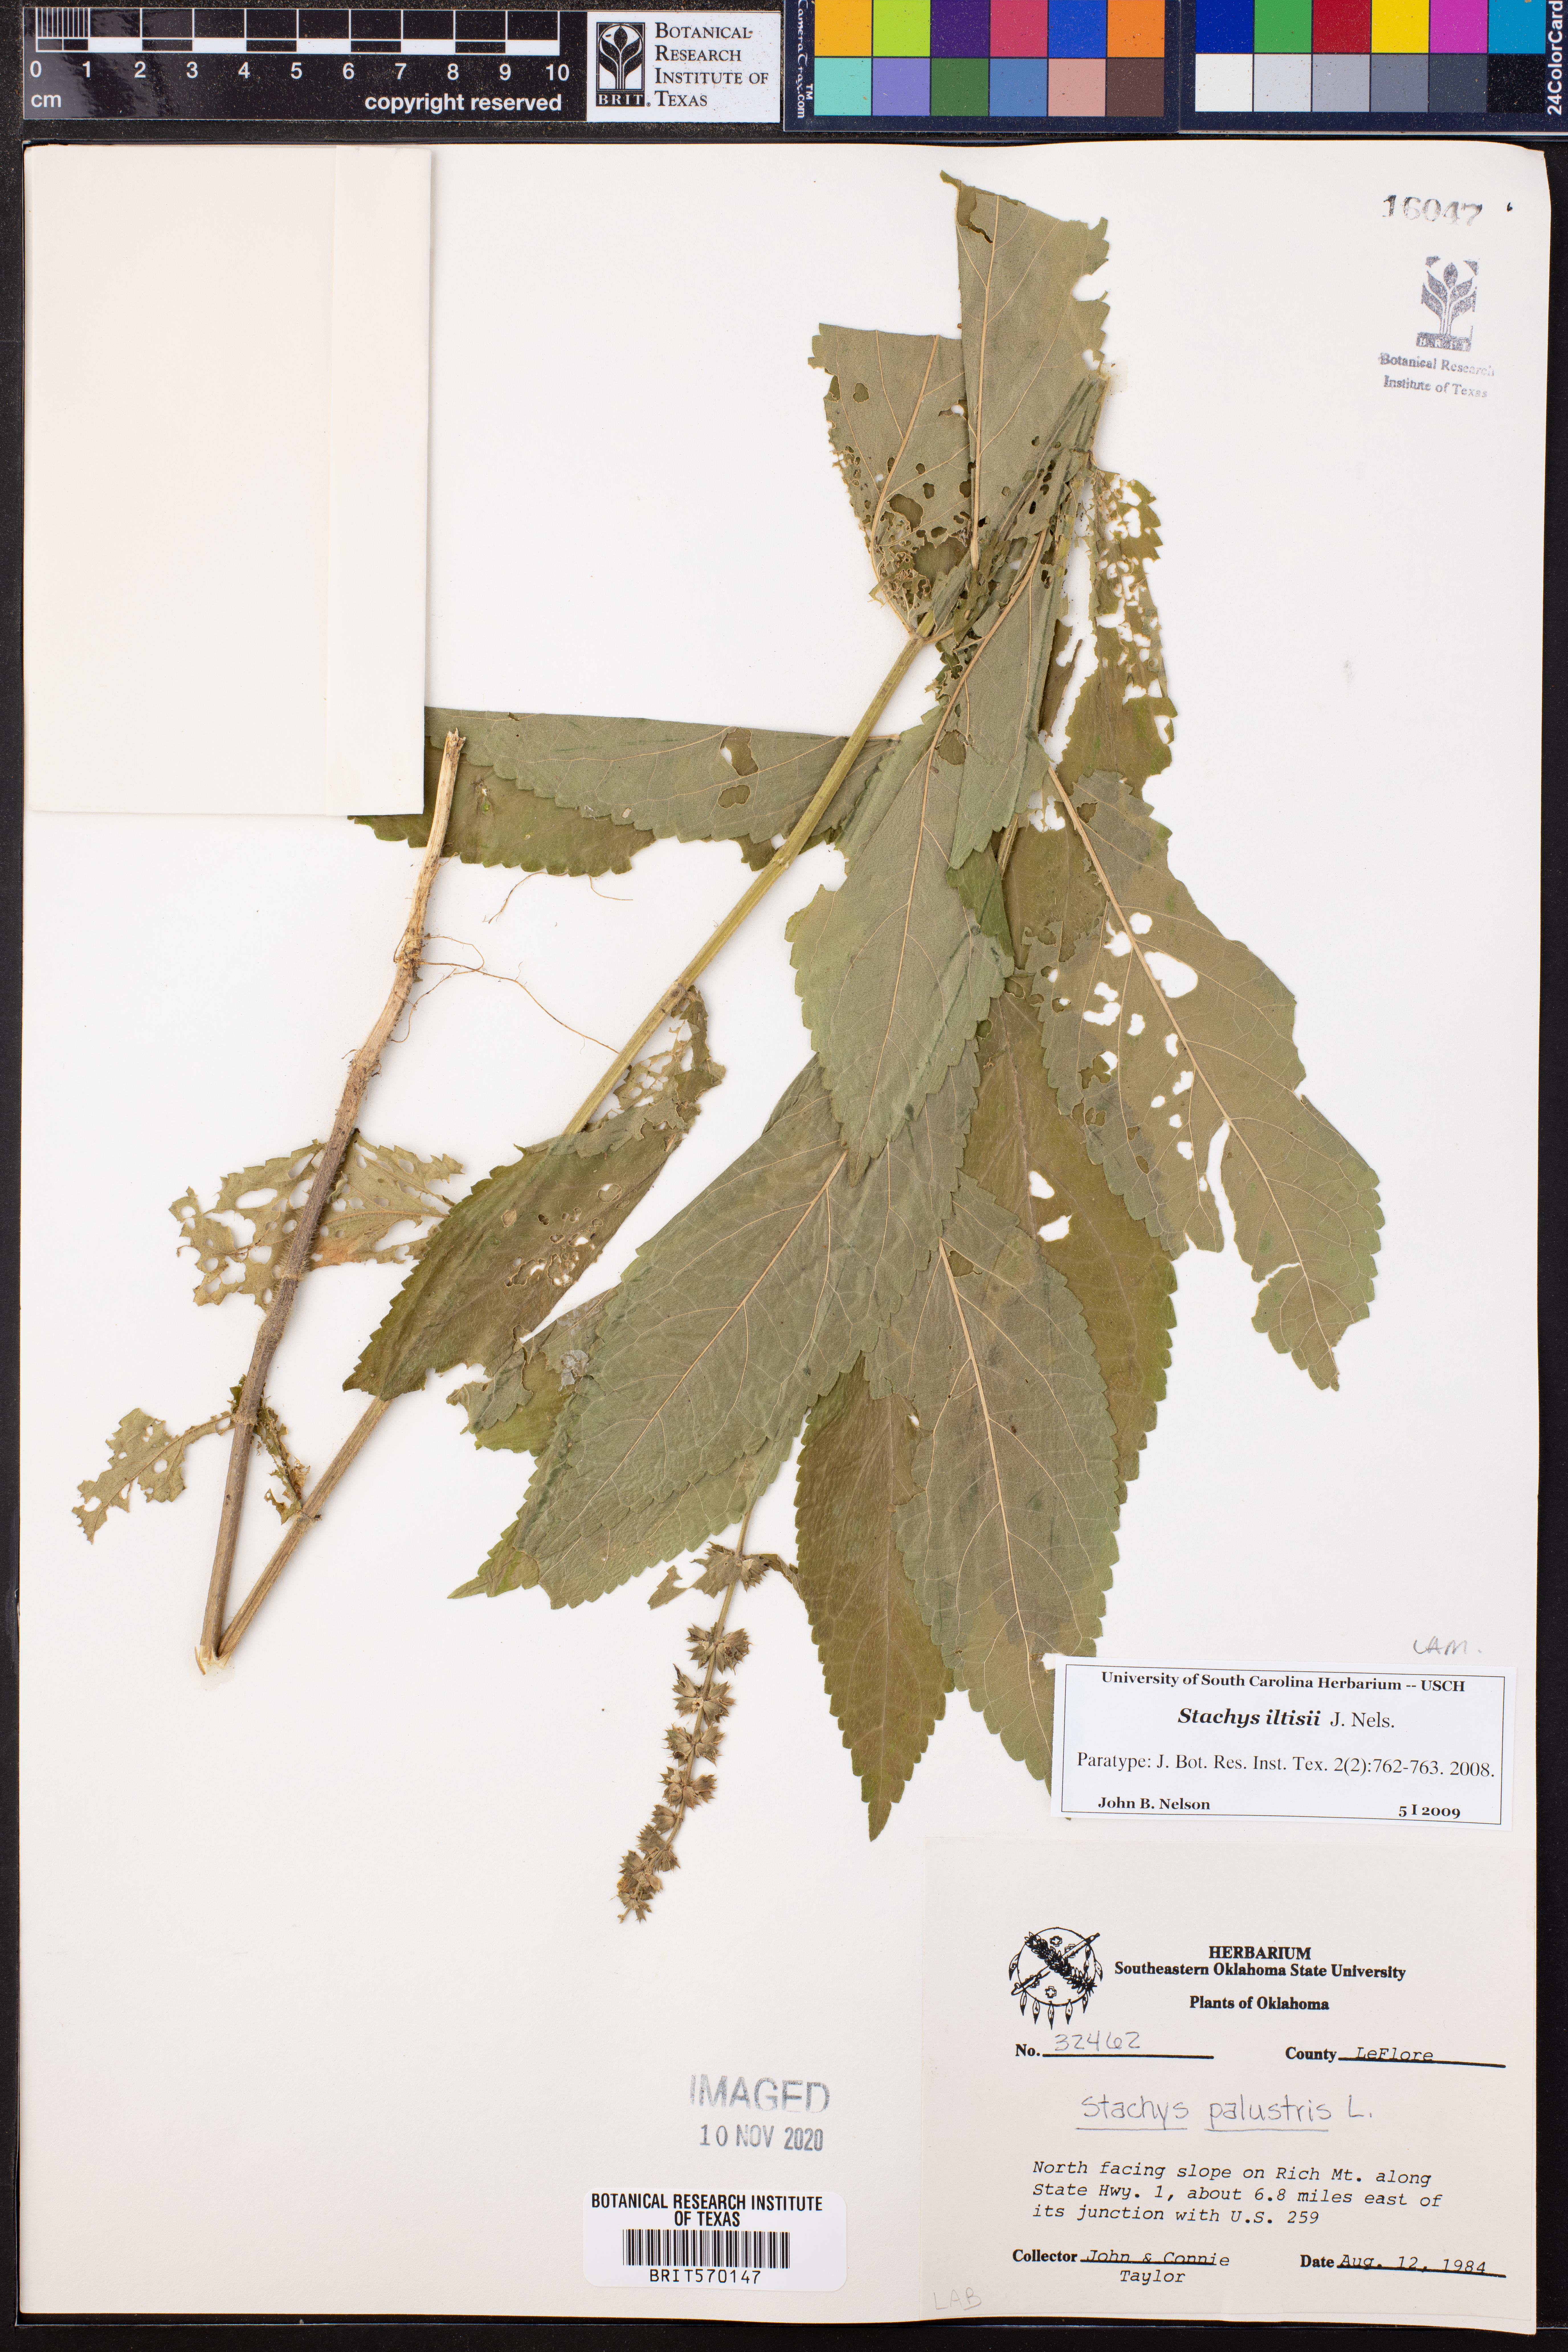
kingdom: Plantae
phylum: Tracheophyta
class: Magnoliopsida
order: Lamiales
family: Lamiaceae
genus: Stachys
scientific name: Stachys iltisii
